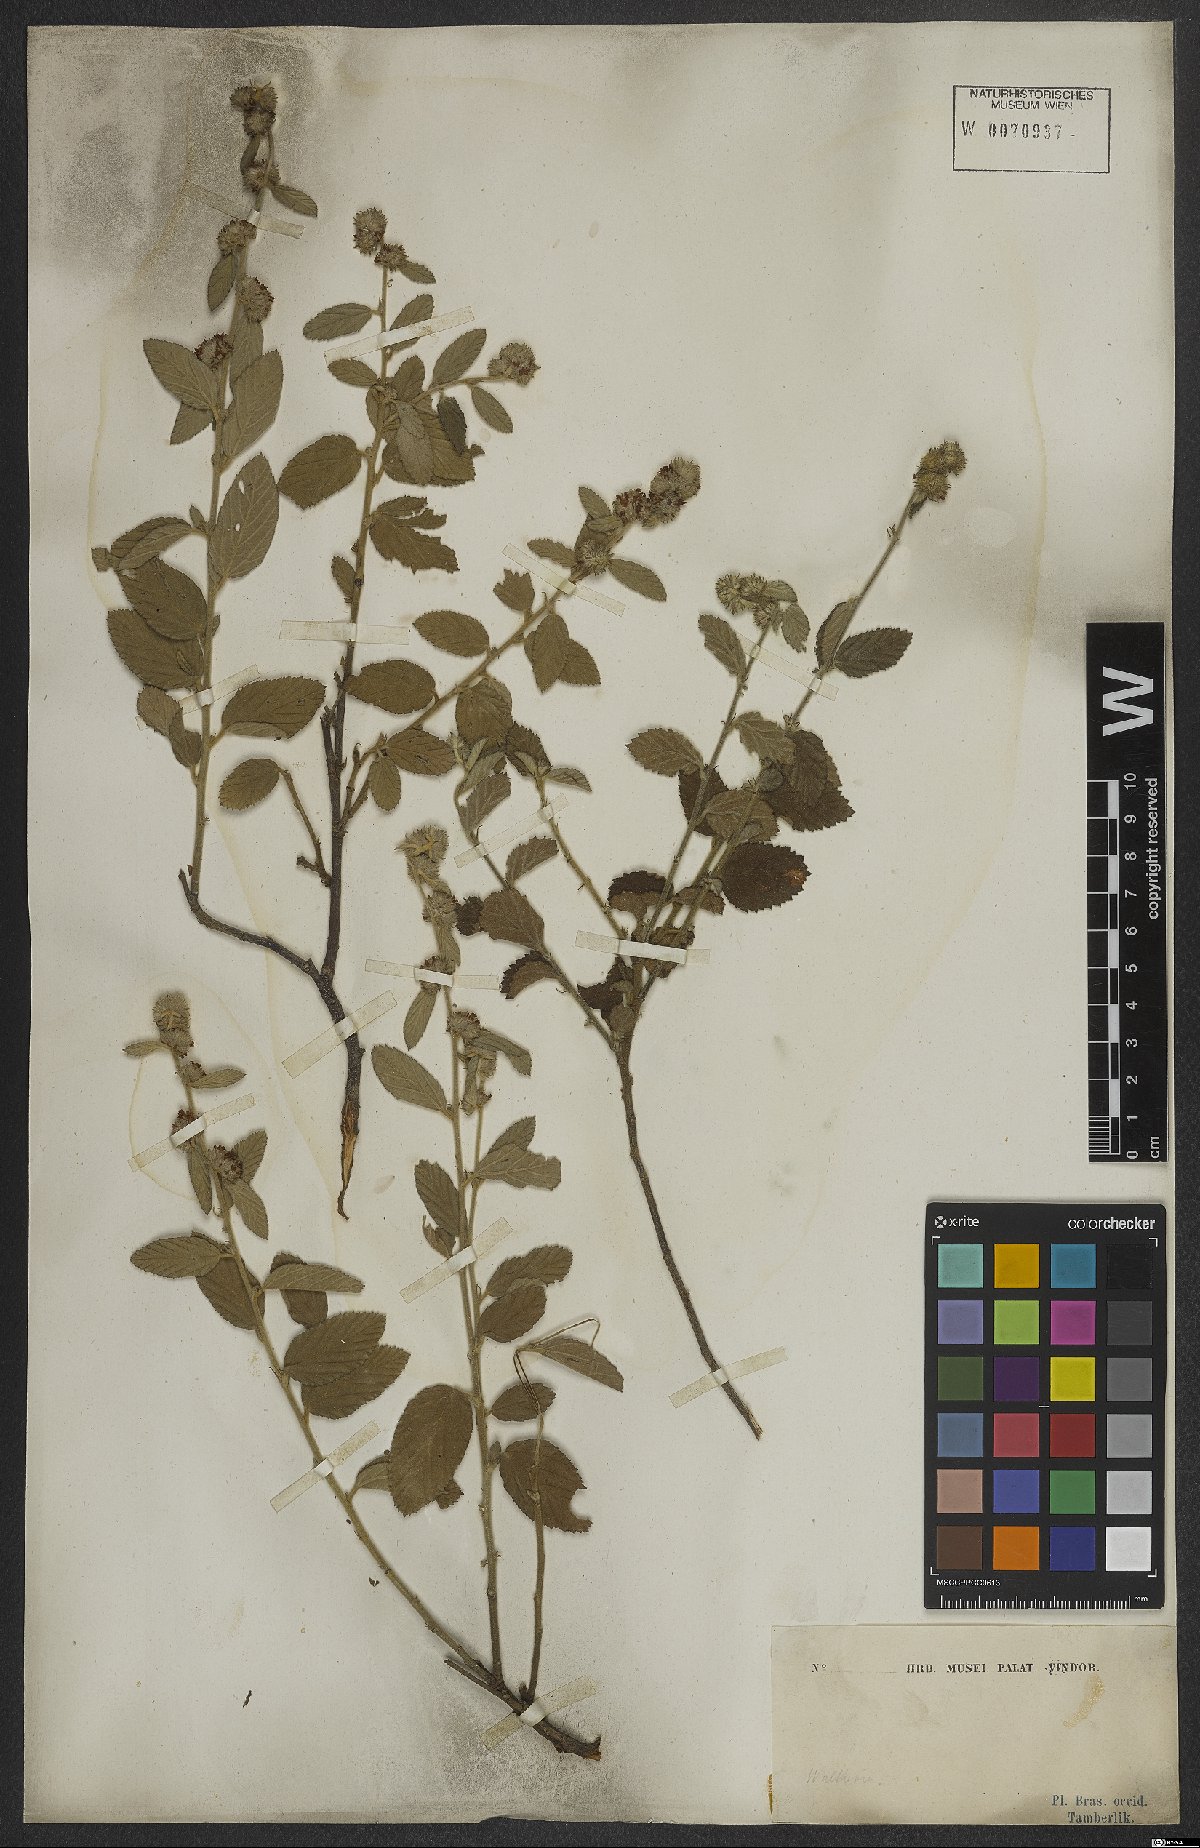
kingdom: Plantae
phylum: Tracheophyta
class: Magnoliopsida
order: Malvales
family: Malvaceae
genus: Waltheria
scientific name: Waltheria indica
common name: Leather-coat
